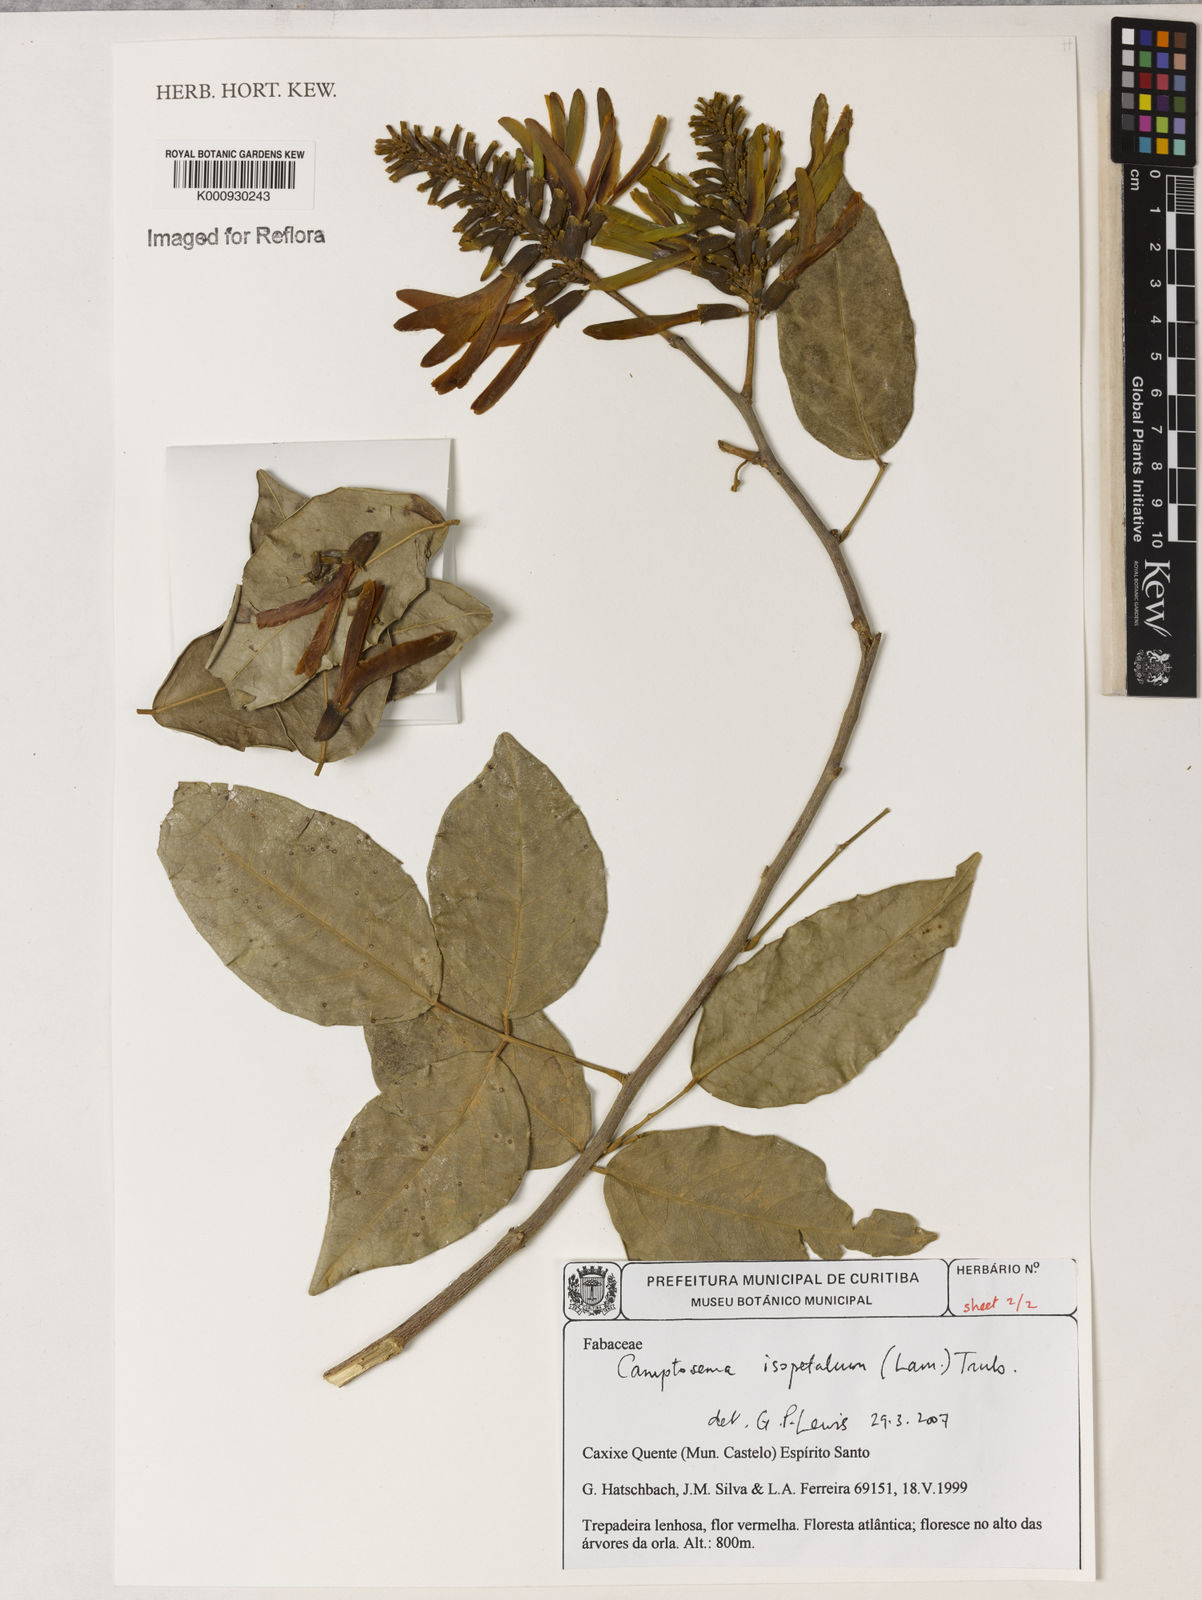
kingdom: Plantae
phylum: Tracheophyta
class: Magnoliopsida
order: Fabales
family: Fabaceae
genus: Cratylia
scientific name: Cratylia isopetala
